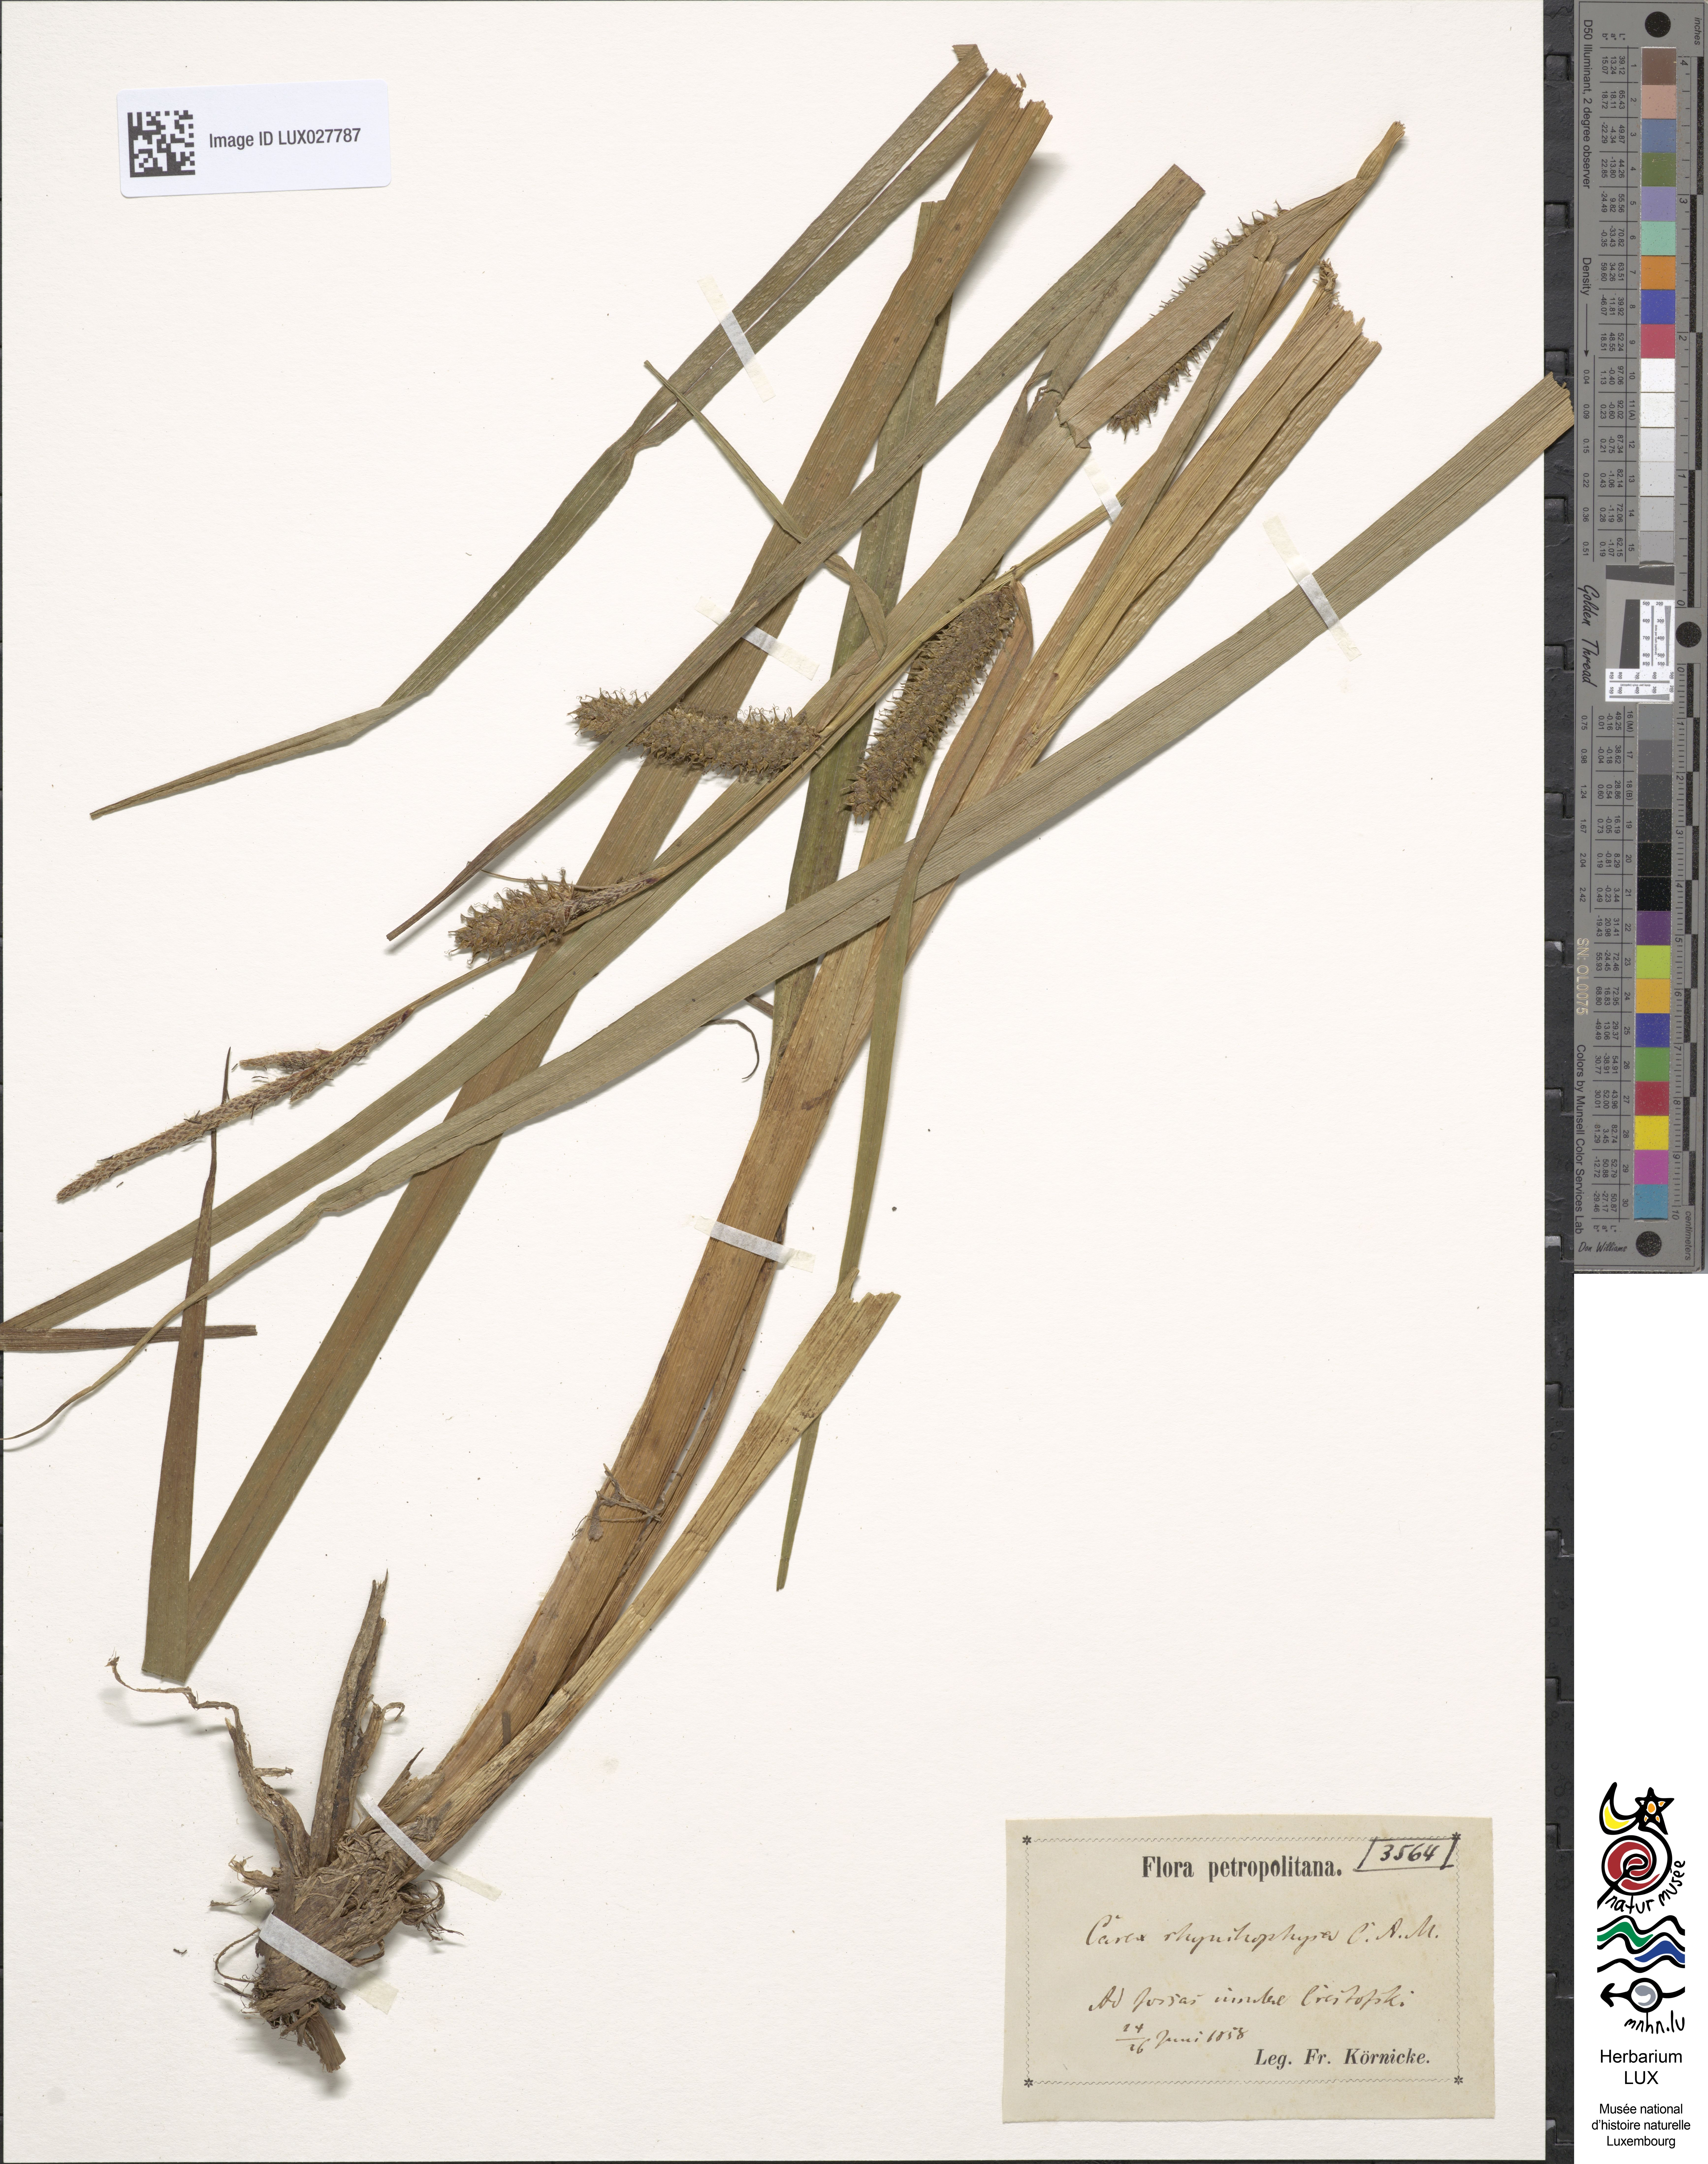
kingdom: Plantae
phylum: Tracheophyta
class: Liliopsida
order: Poales
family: Cyperaceae
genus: Carex
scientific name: Carex utriculata
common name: Beaked sedge
